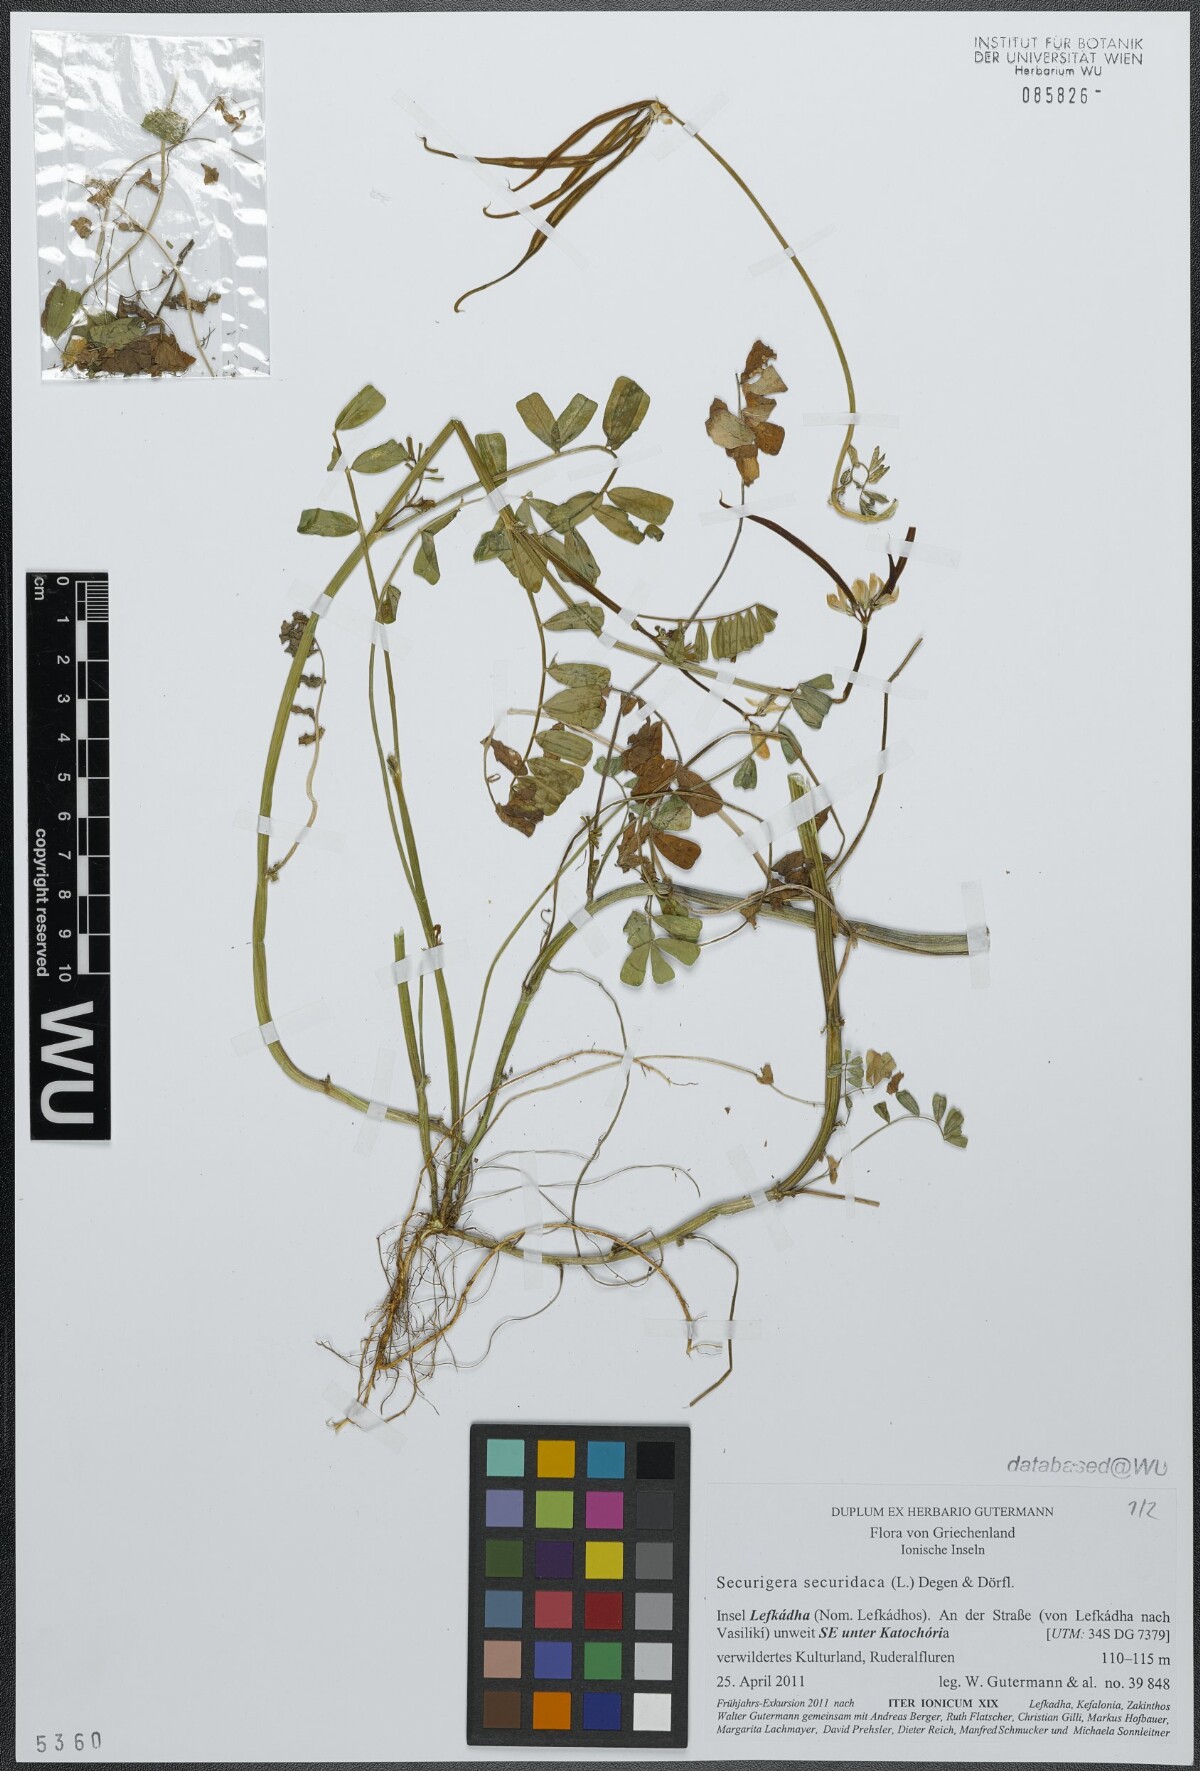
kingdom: Plantae
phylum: Tracheophyta
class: Magnoliopsida
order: Fabales
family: Fabaceae
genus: Coronilla
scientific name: Coronilla securidaca
